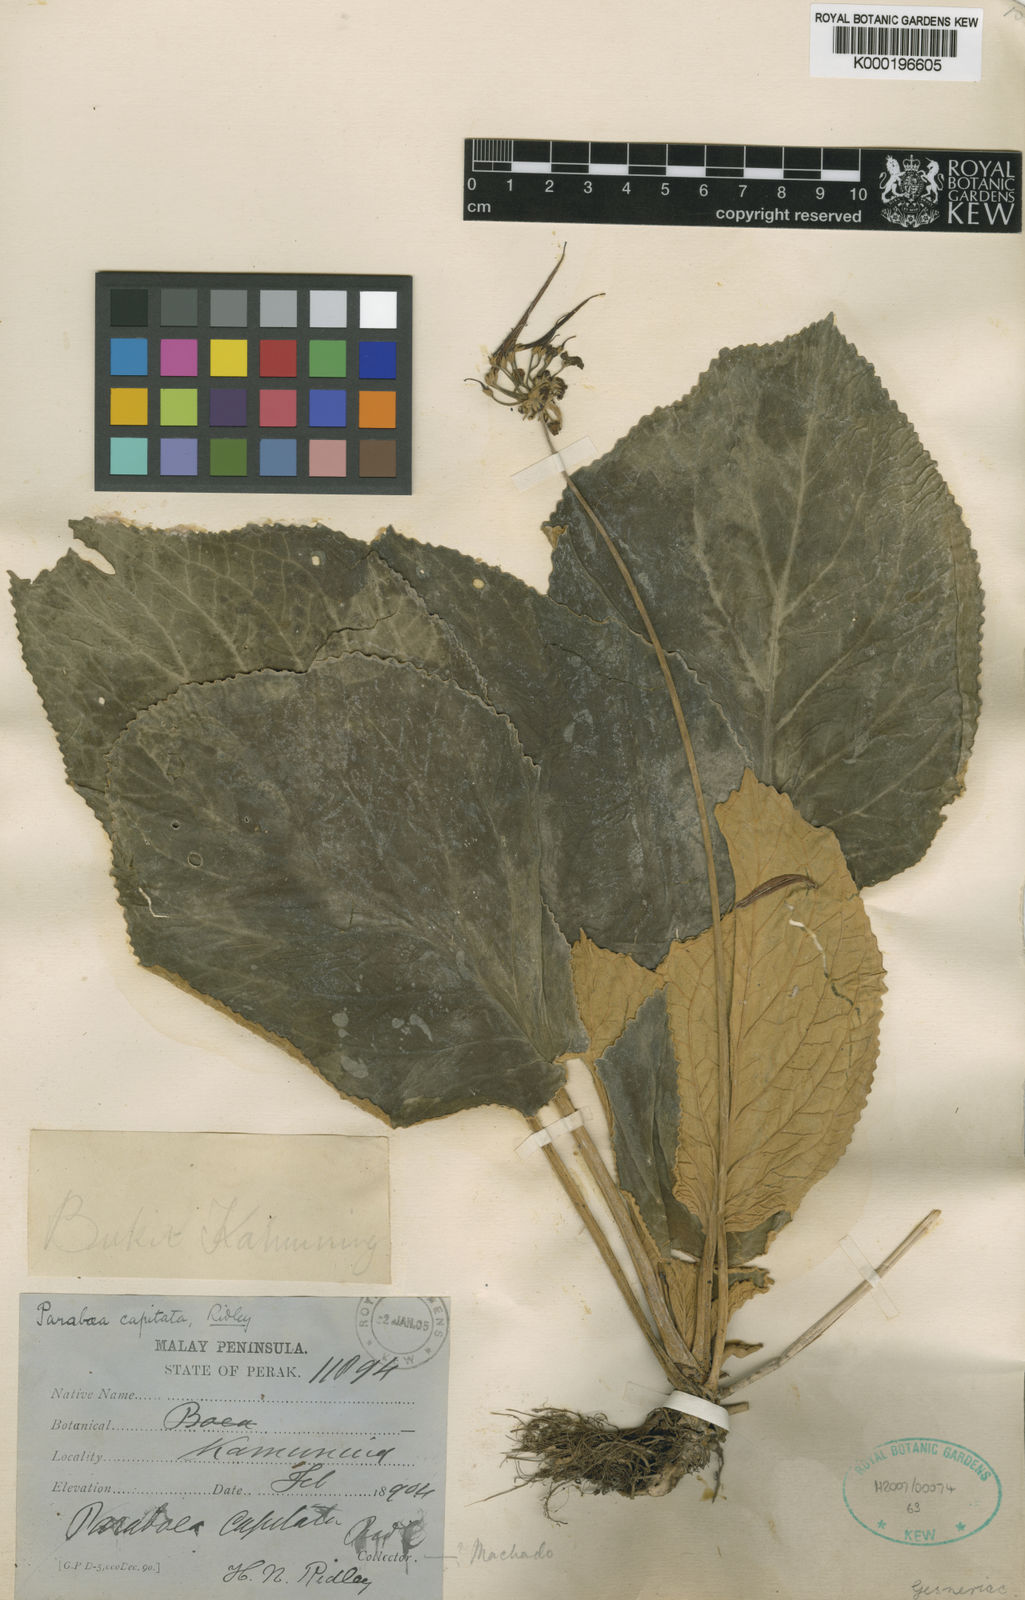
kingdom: Plantae
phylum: Tracheophyta
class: Magnoliopsida
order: Lamiales
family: Gesneriaceae
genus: Paraboea
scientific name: Paraboea capitata
